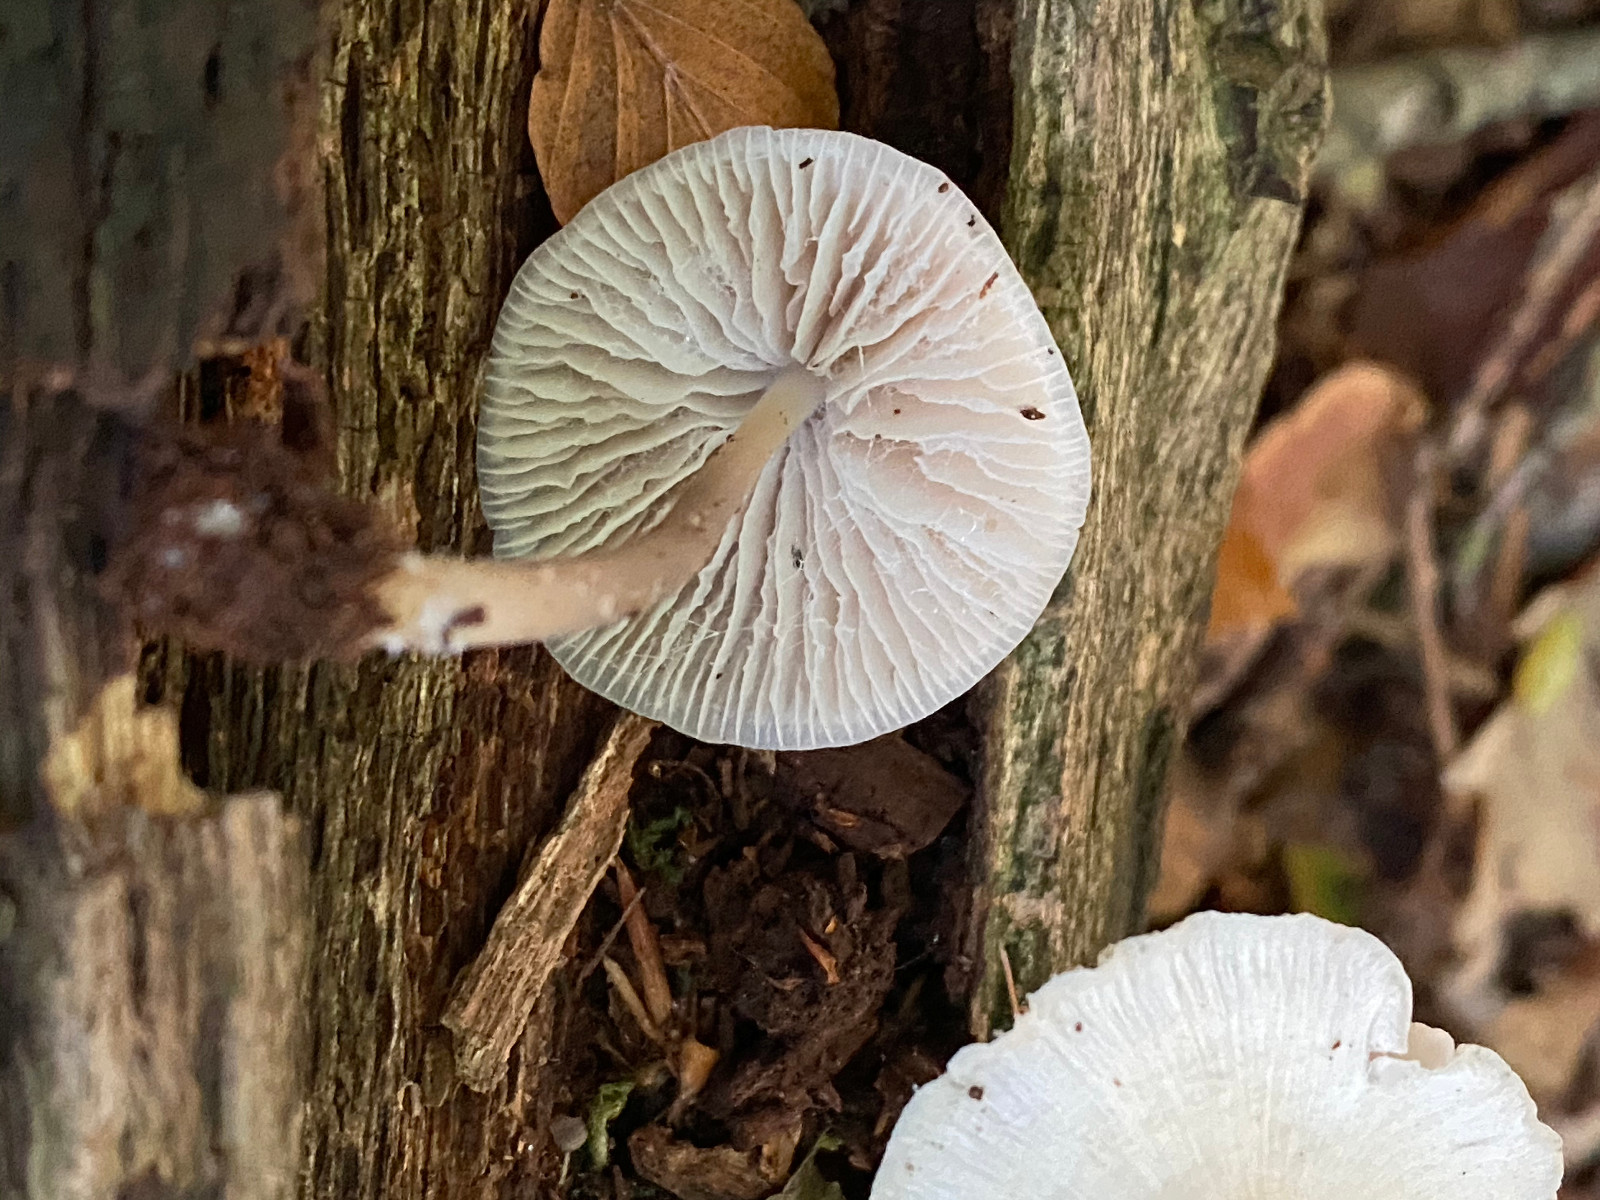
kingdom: Fungi
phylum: Basidiomycota
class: Agaricomycetes
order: Agaricales
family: Mycenaceae
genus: Mycena
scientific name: Mycena galericulata
